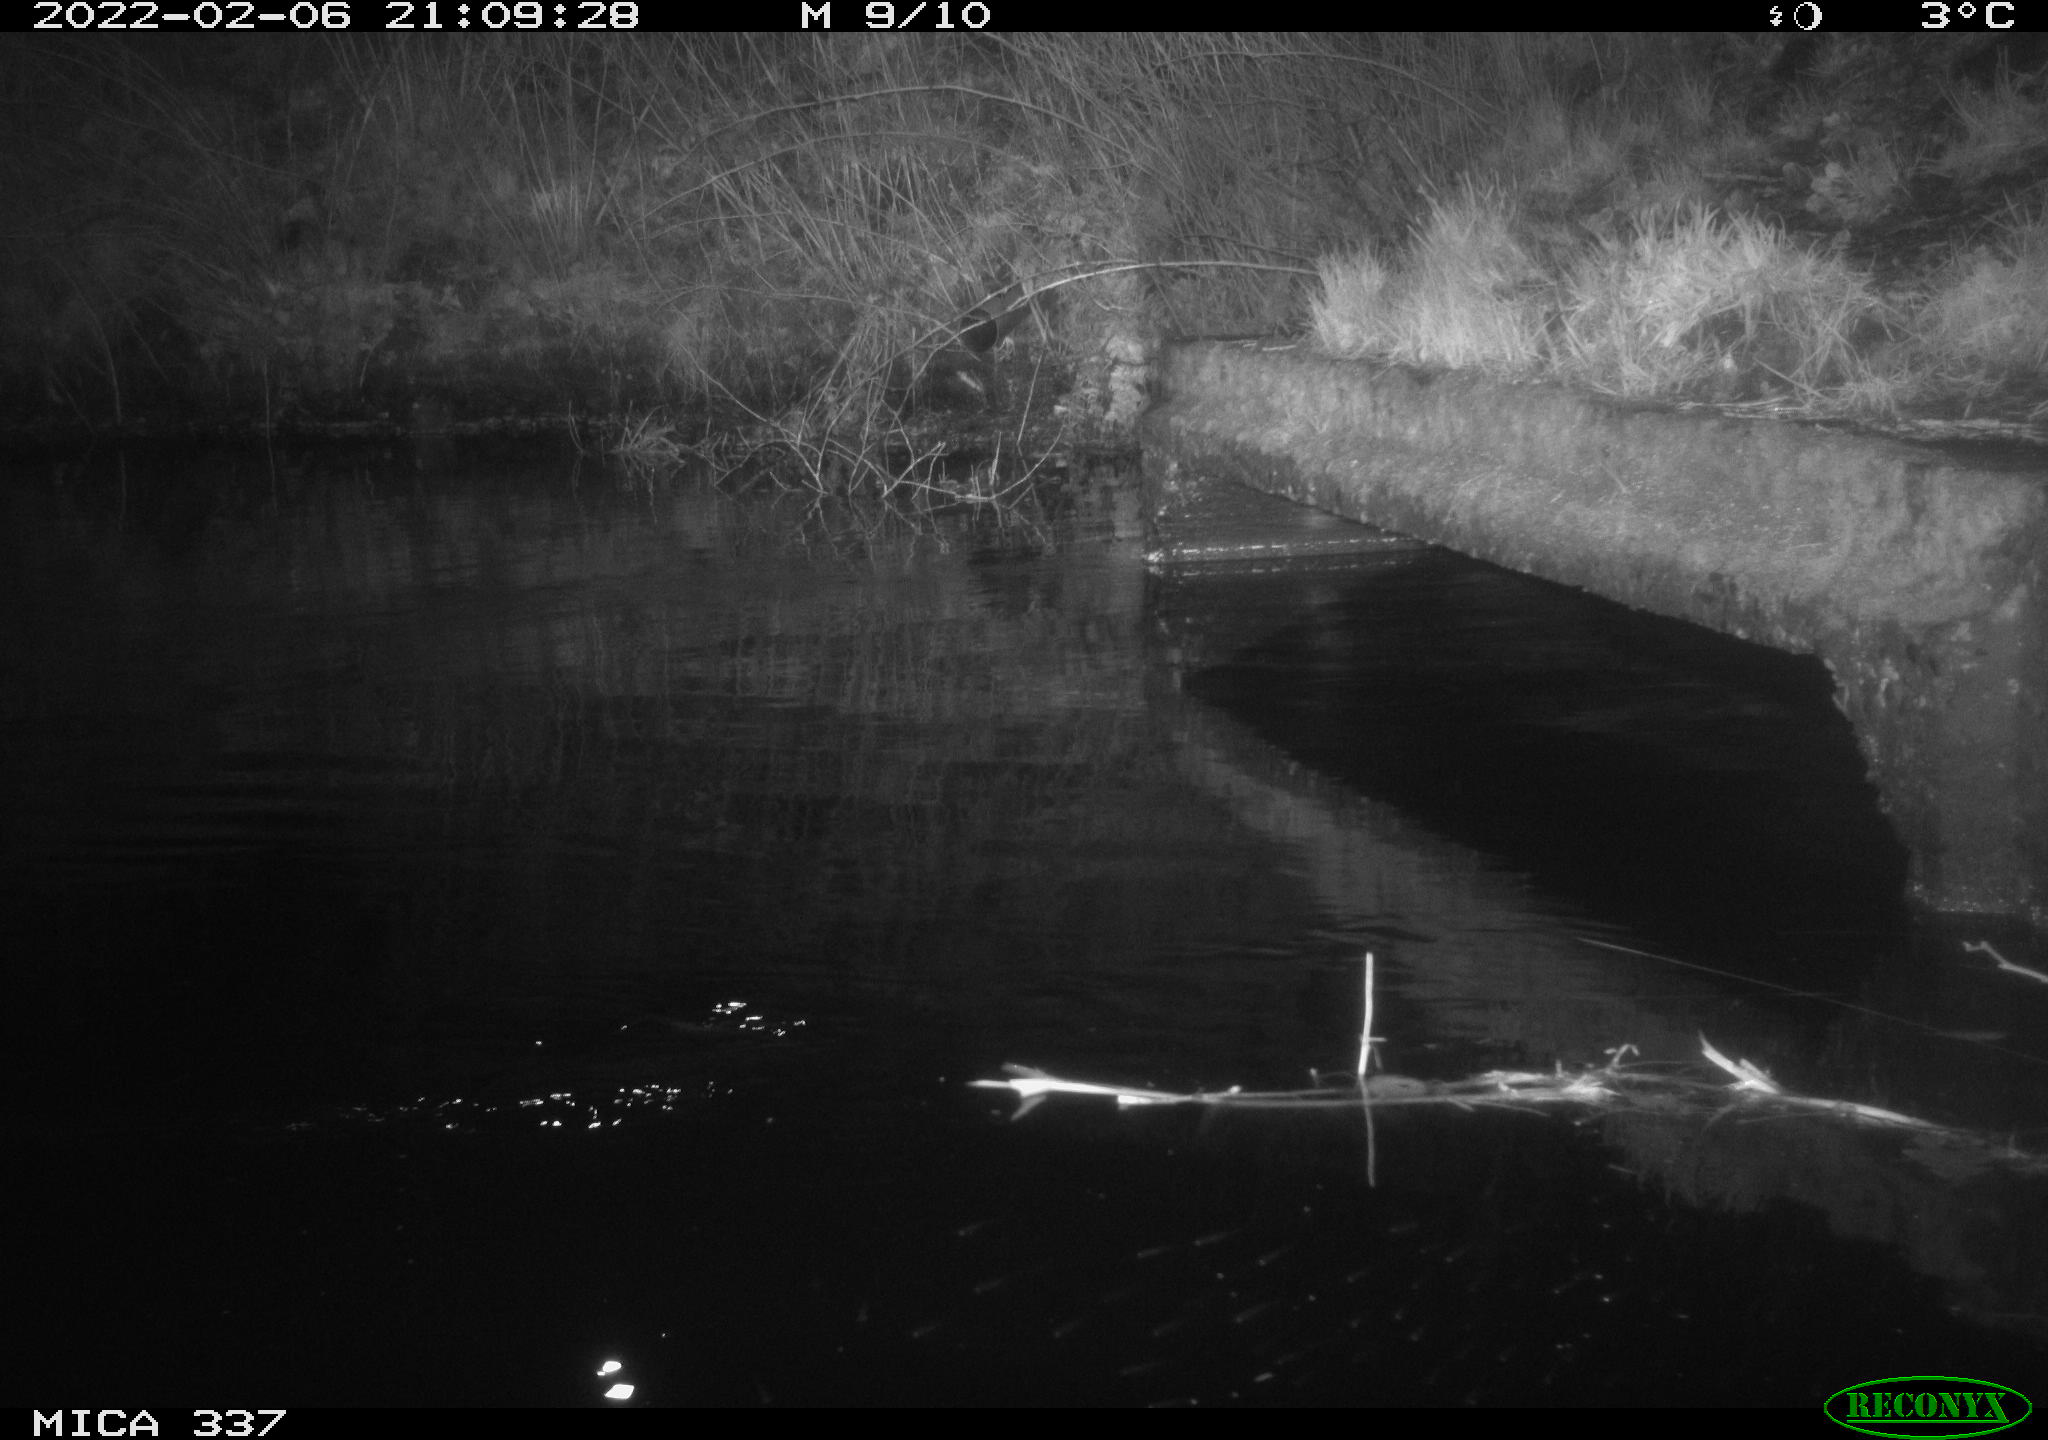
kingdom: Animalia
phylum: Chordata
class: Mammalia
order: Rodentia
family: Muridae
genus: Rattus
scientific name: Rattus norvegicus
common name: Brown rat
